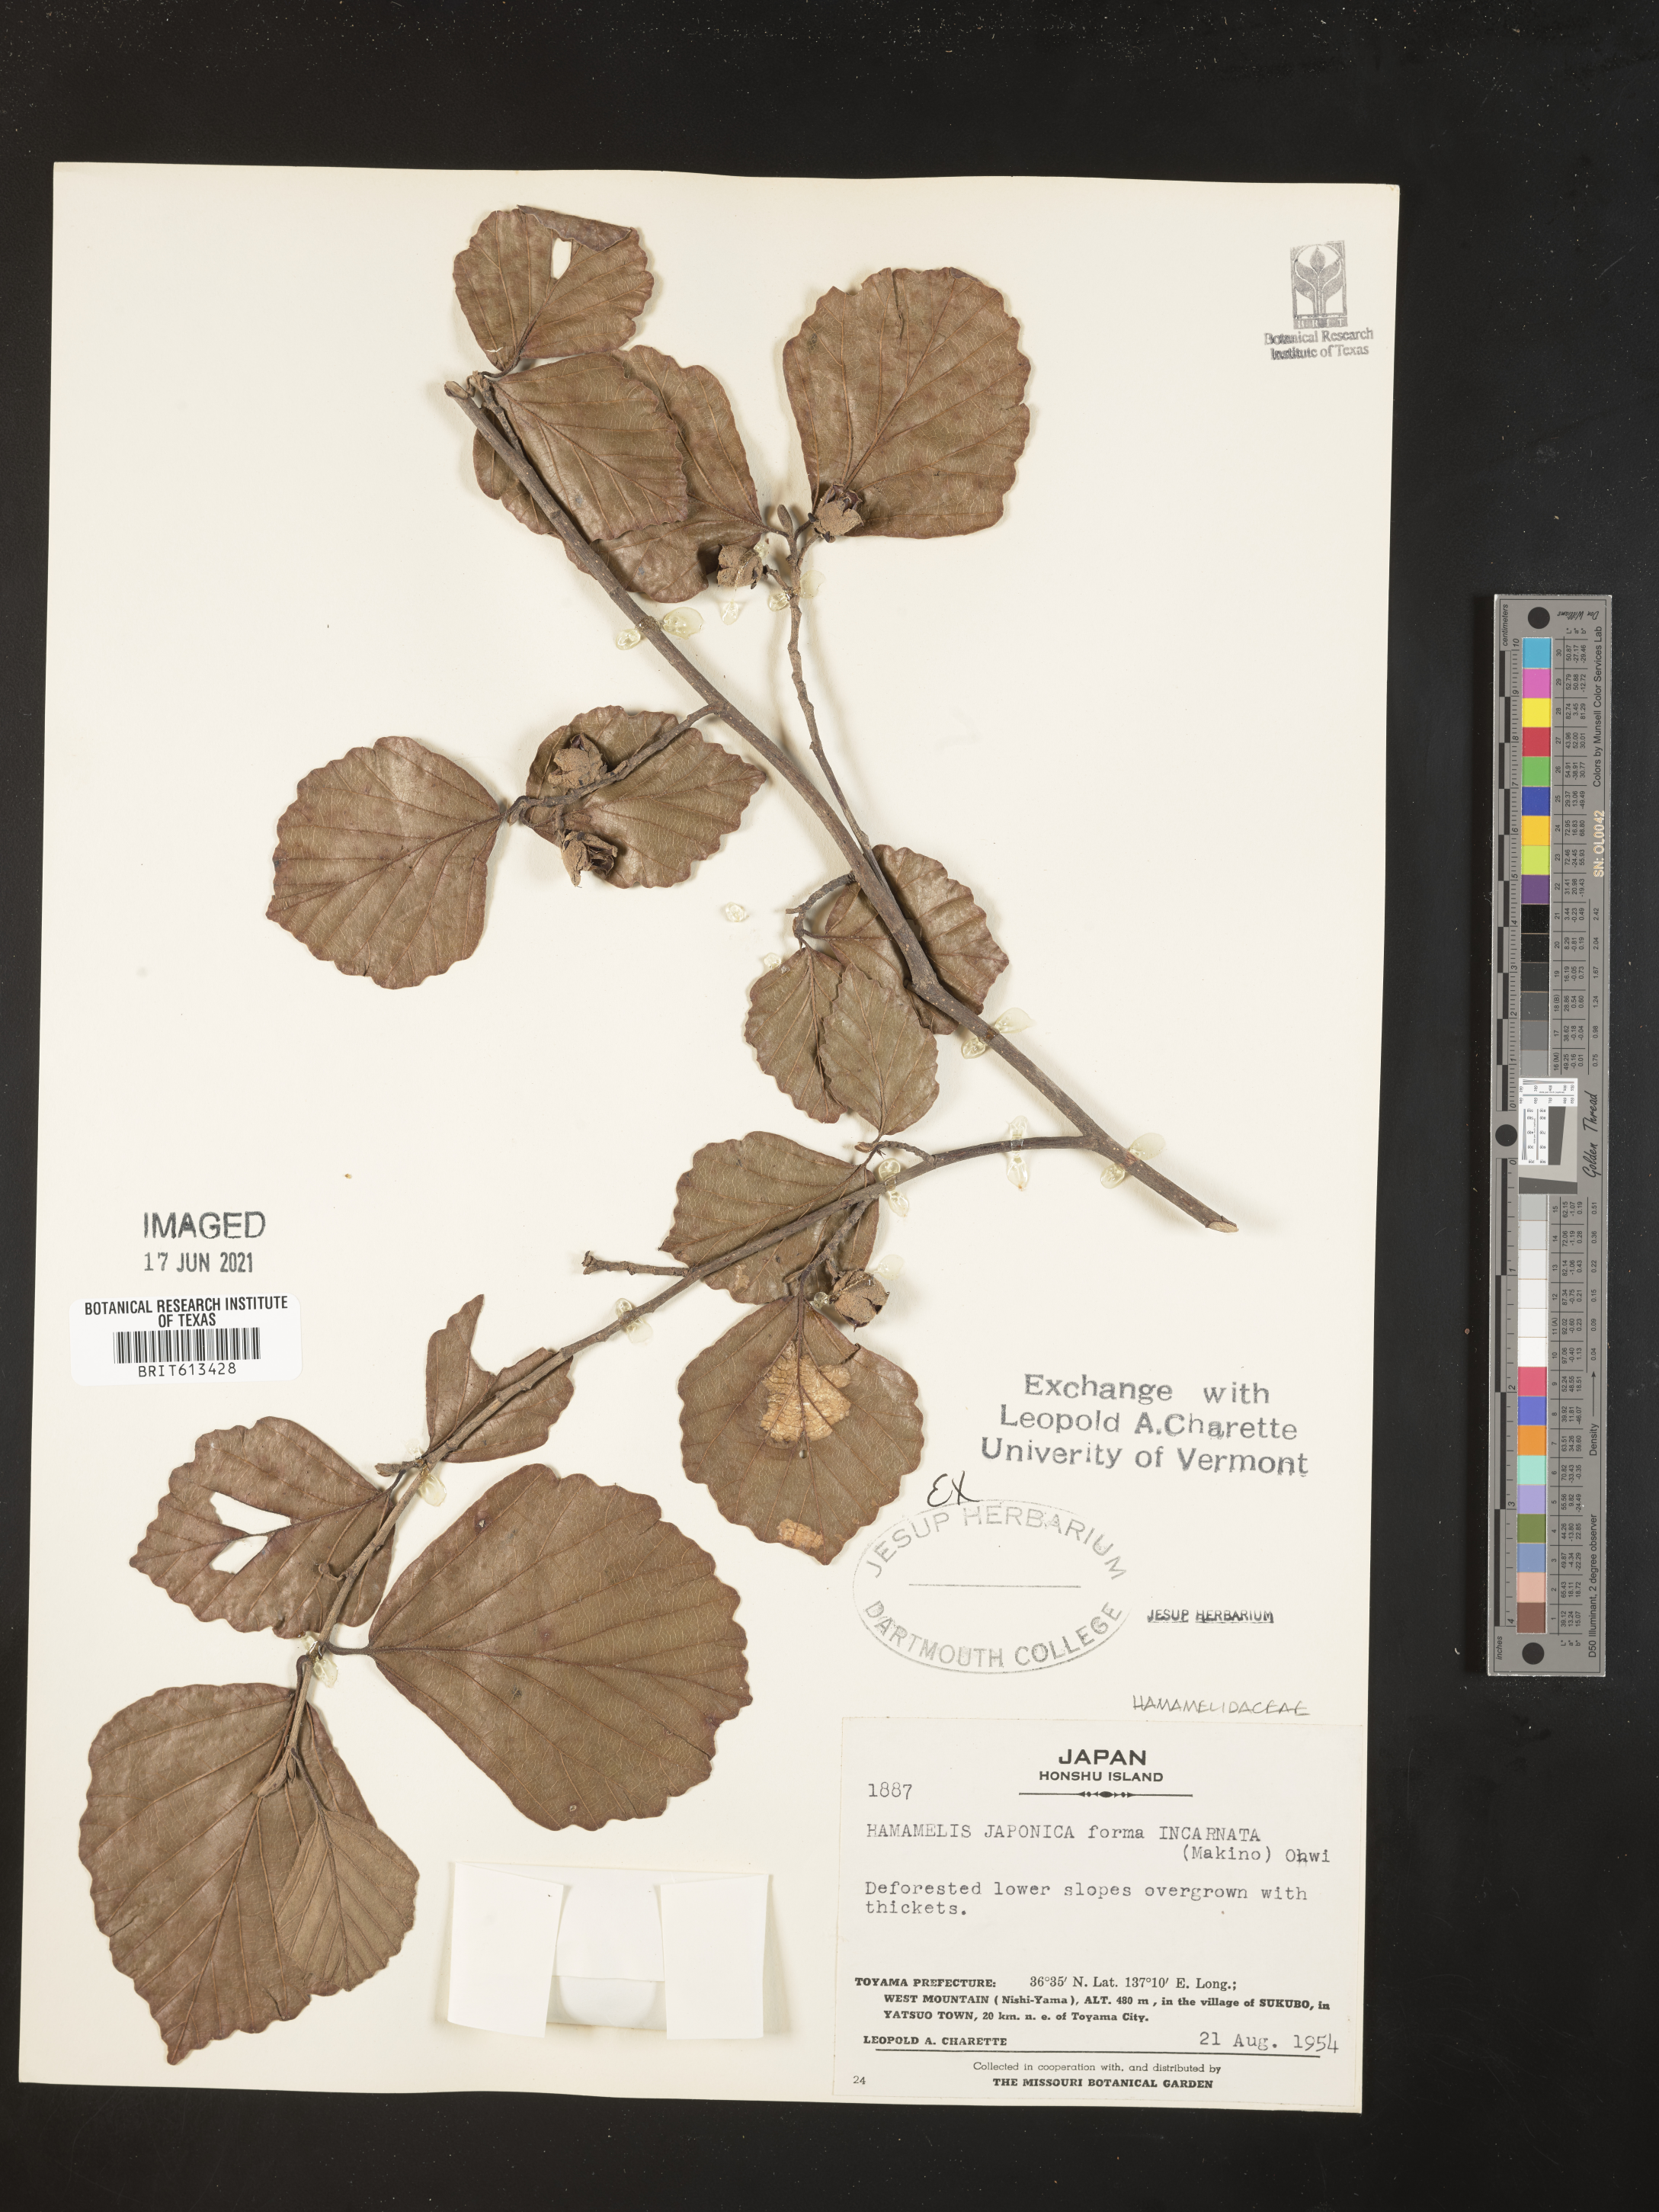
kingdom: Plantae
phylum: Tracheophyta
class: Magnoliopsida
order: Saxifragales
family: Hamamelidaceae
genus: Hamamelis
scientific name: Hamamelis japonica
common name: Japanese witch-hazel
